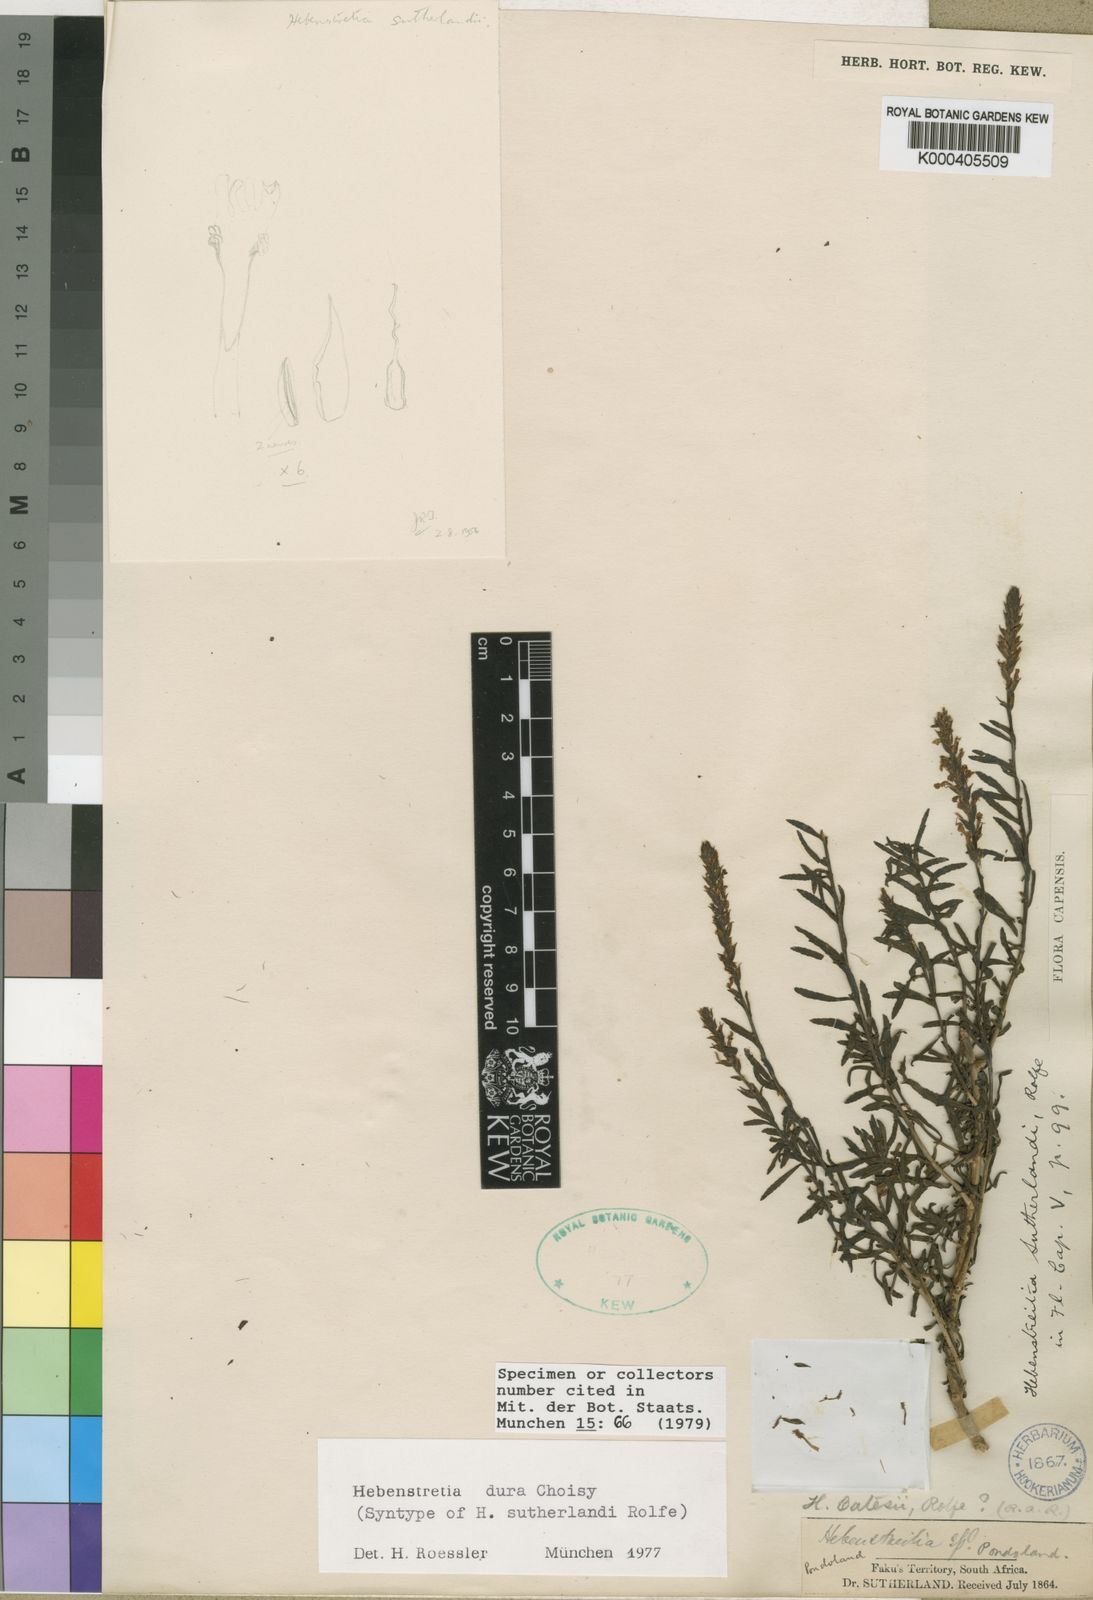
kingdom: Plantae
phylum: Tracheophyta
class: Magnoliopsida
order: Lamiales
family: Scrophulariaceae
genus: Hebenstretia
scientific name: Hebenstretia dura
